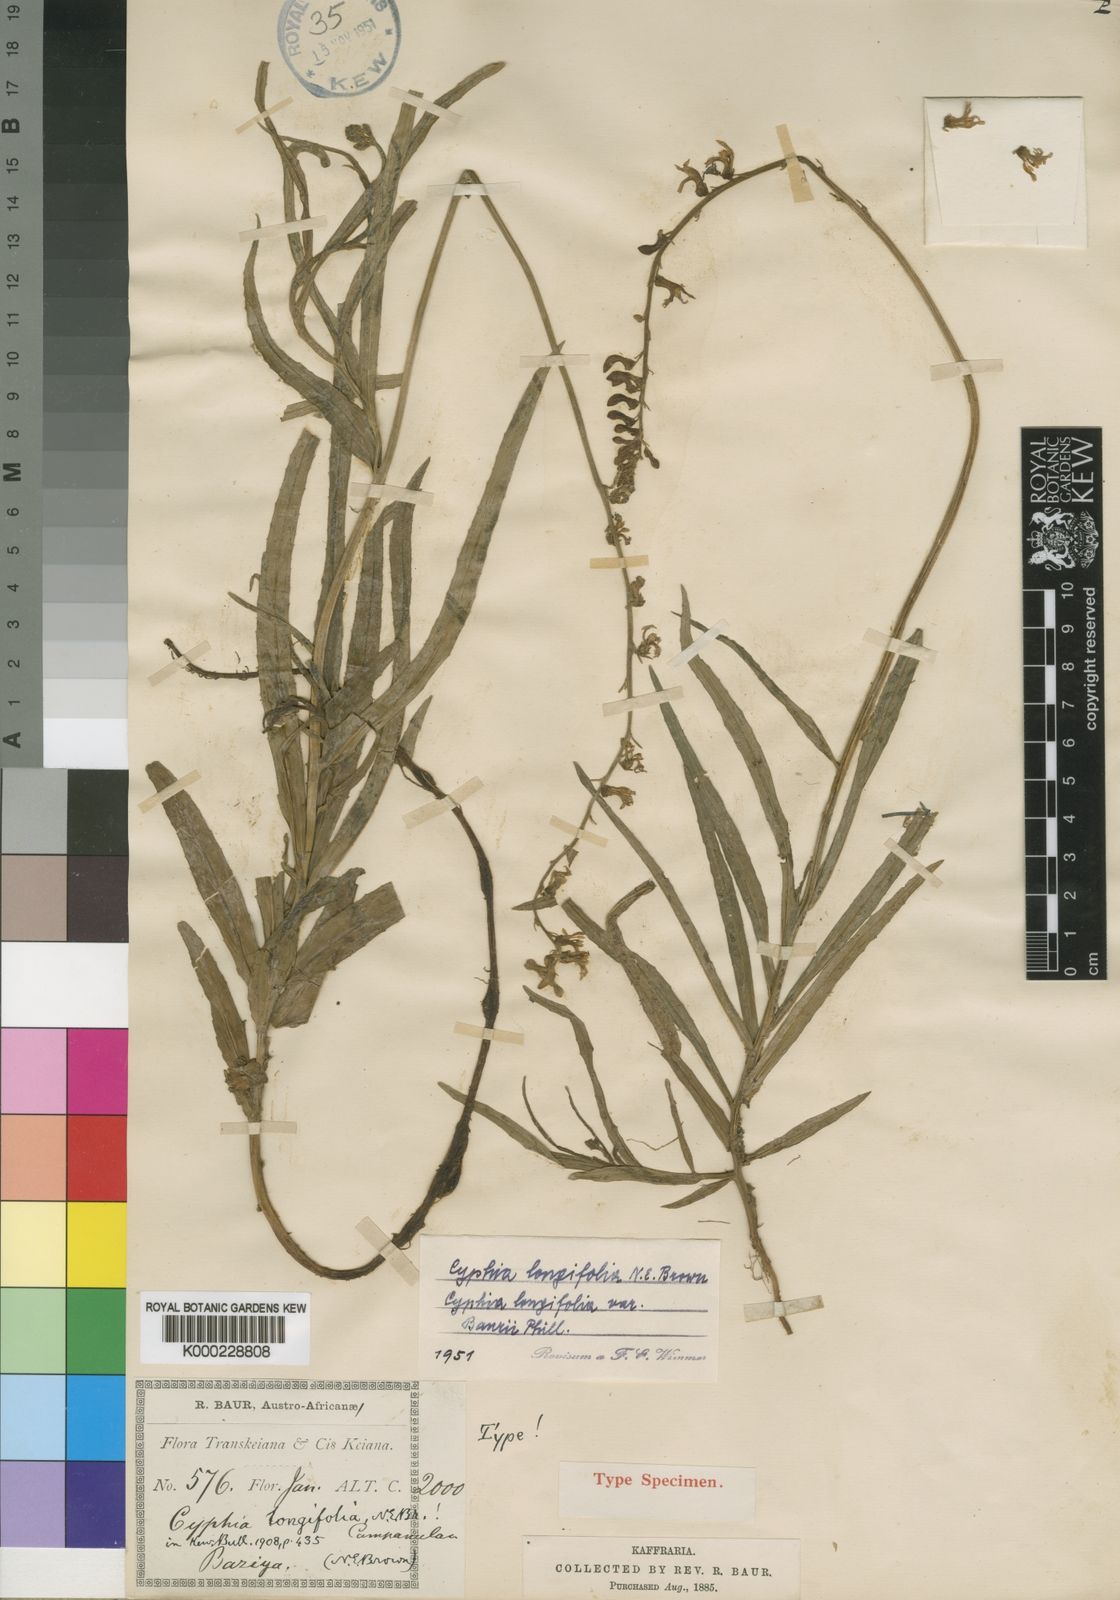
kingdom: Plantae
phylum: Tracheophyta
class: Magnoliopsida
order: Asterales
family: Campanulaceae
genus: Cyphia
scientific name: Cyphia longifolia
